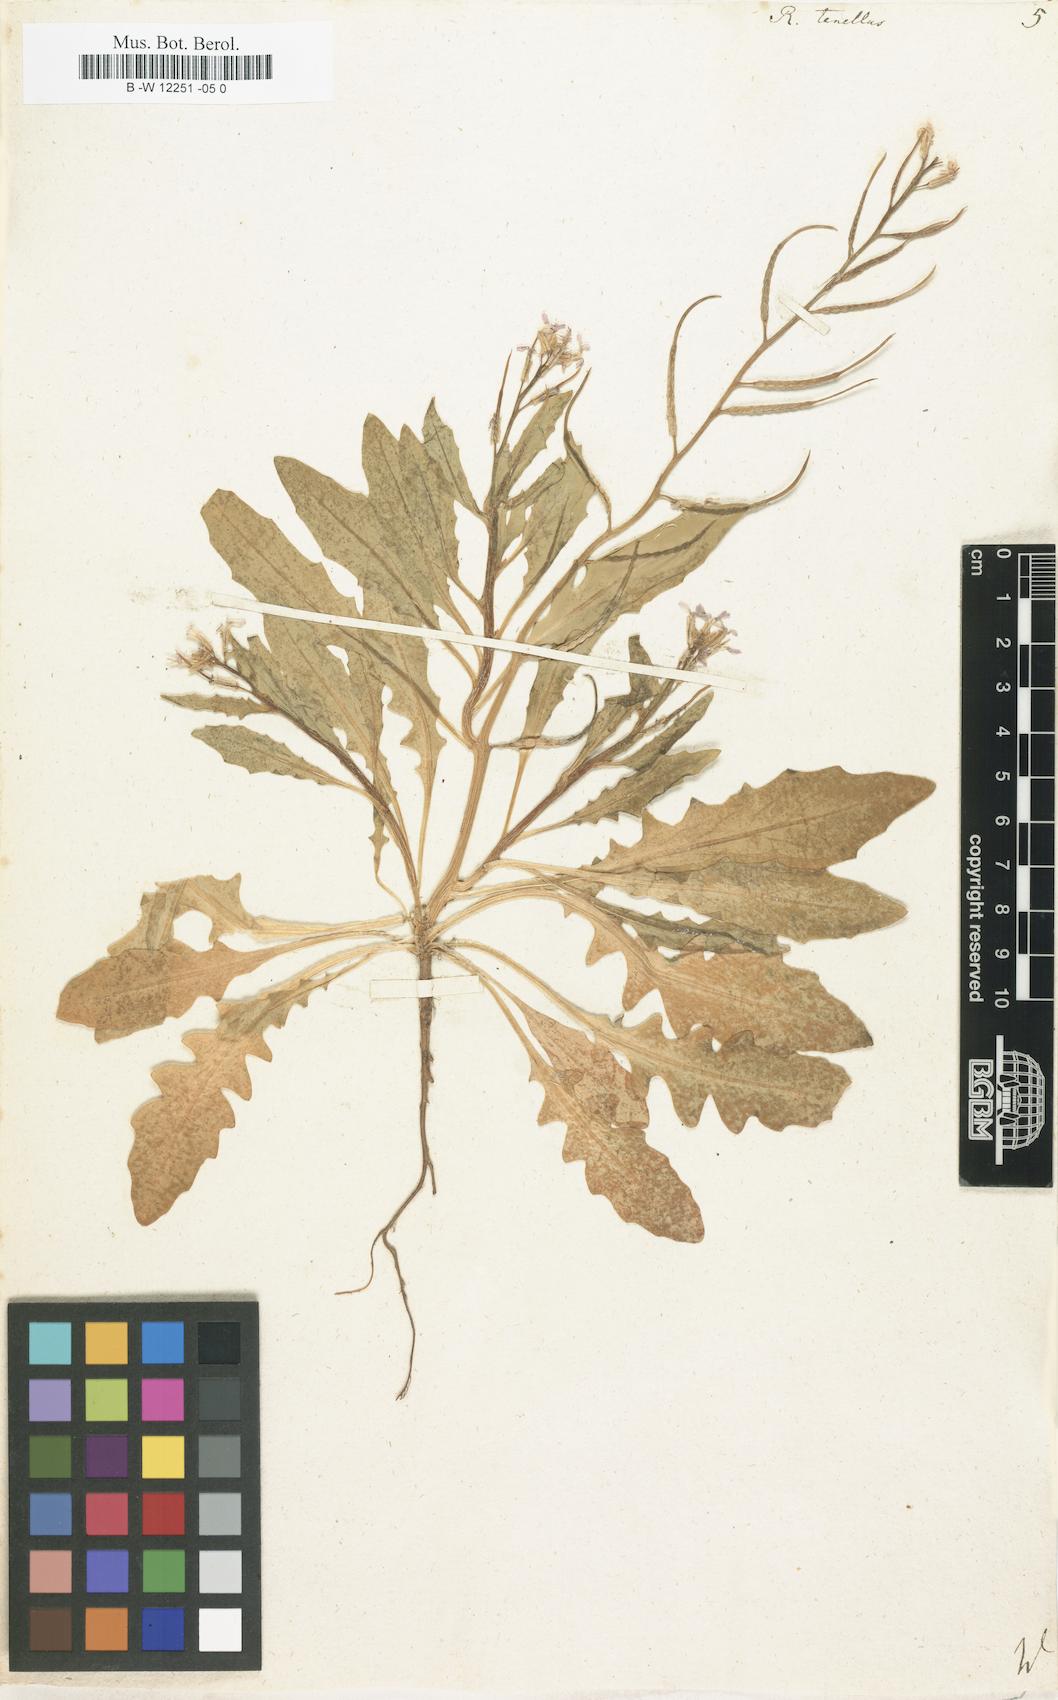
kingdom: Plantae
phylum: Tracheophyta
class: Magnoliopsida
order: Brassicales
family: Brassicaceae
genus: Chorispora
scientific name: Chorispora tenella
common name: Crossflower
